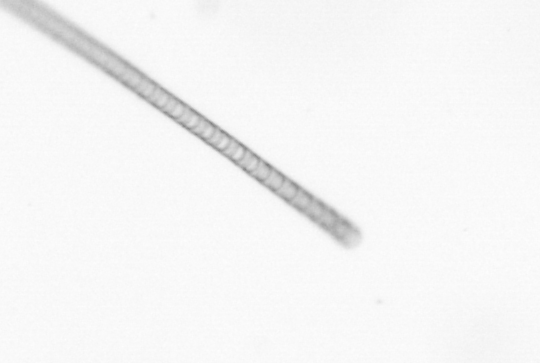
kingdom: Chromista
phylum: Ochrophyta
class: Bacillariophyceae
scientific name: Bacillariophyceae
